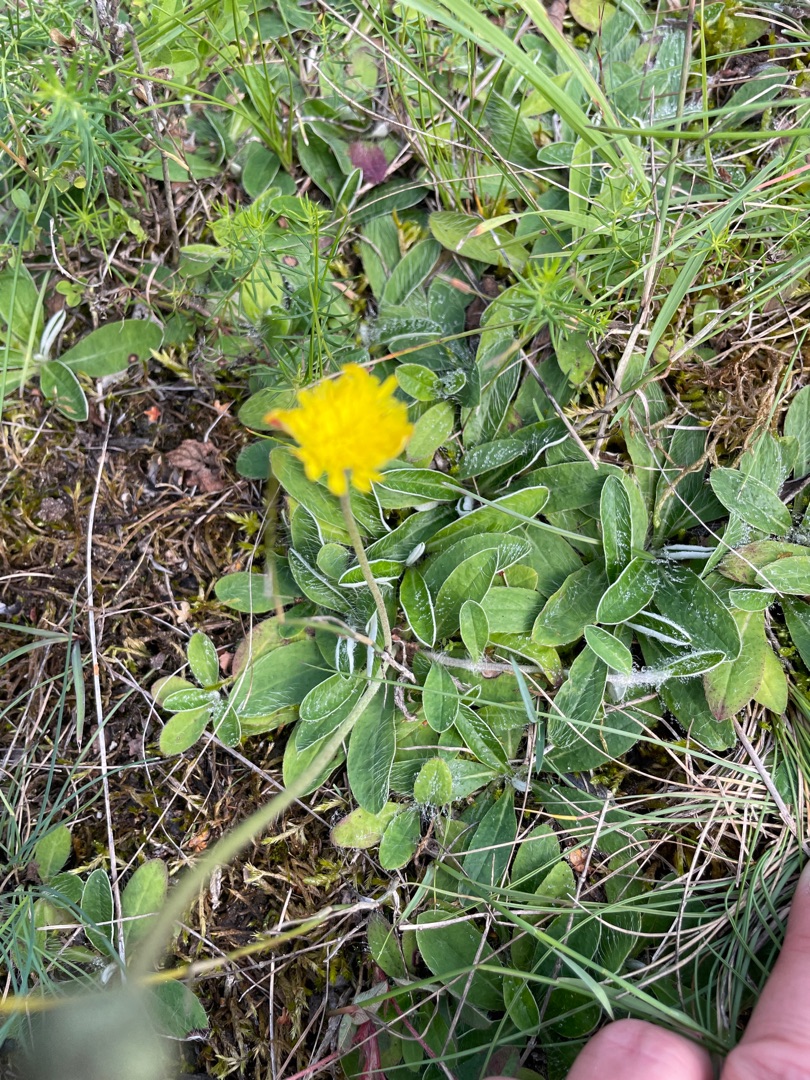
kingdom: Plantae
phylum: Tracheophyta
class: Magnoliopsida
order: Asterales
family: Asteraceae
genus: Pilosella
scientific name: Pilosella officinarum
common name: Håret høgeurt
